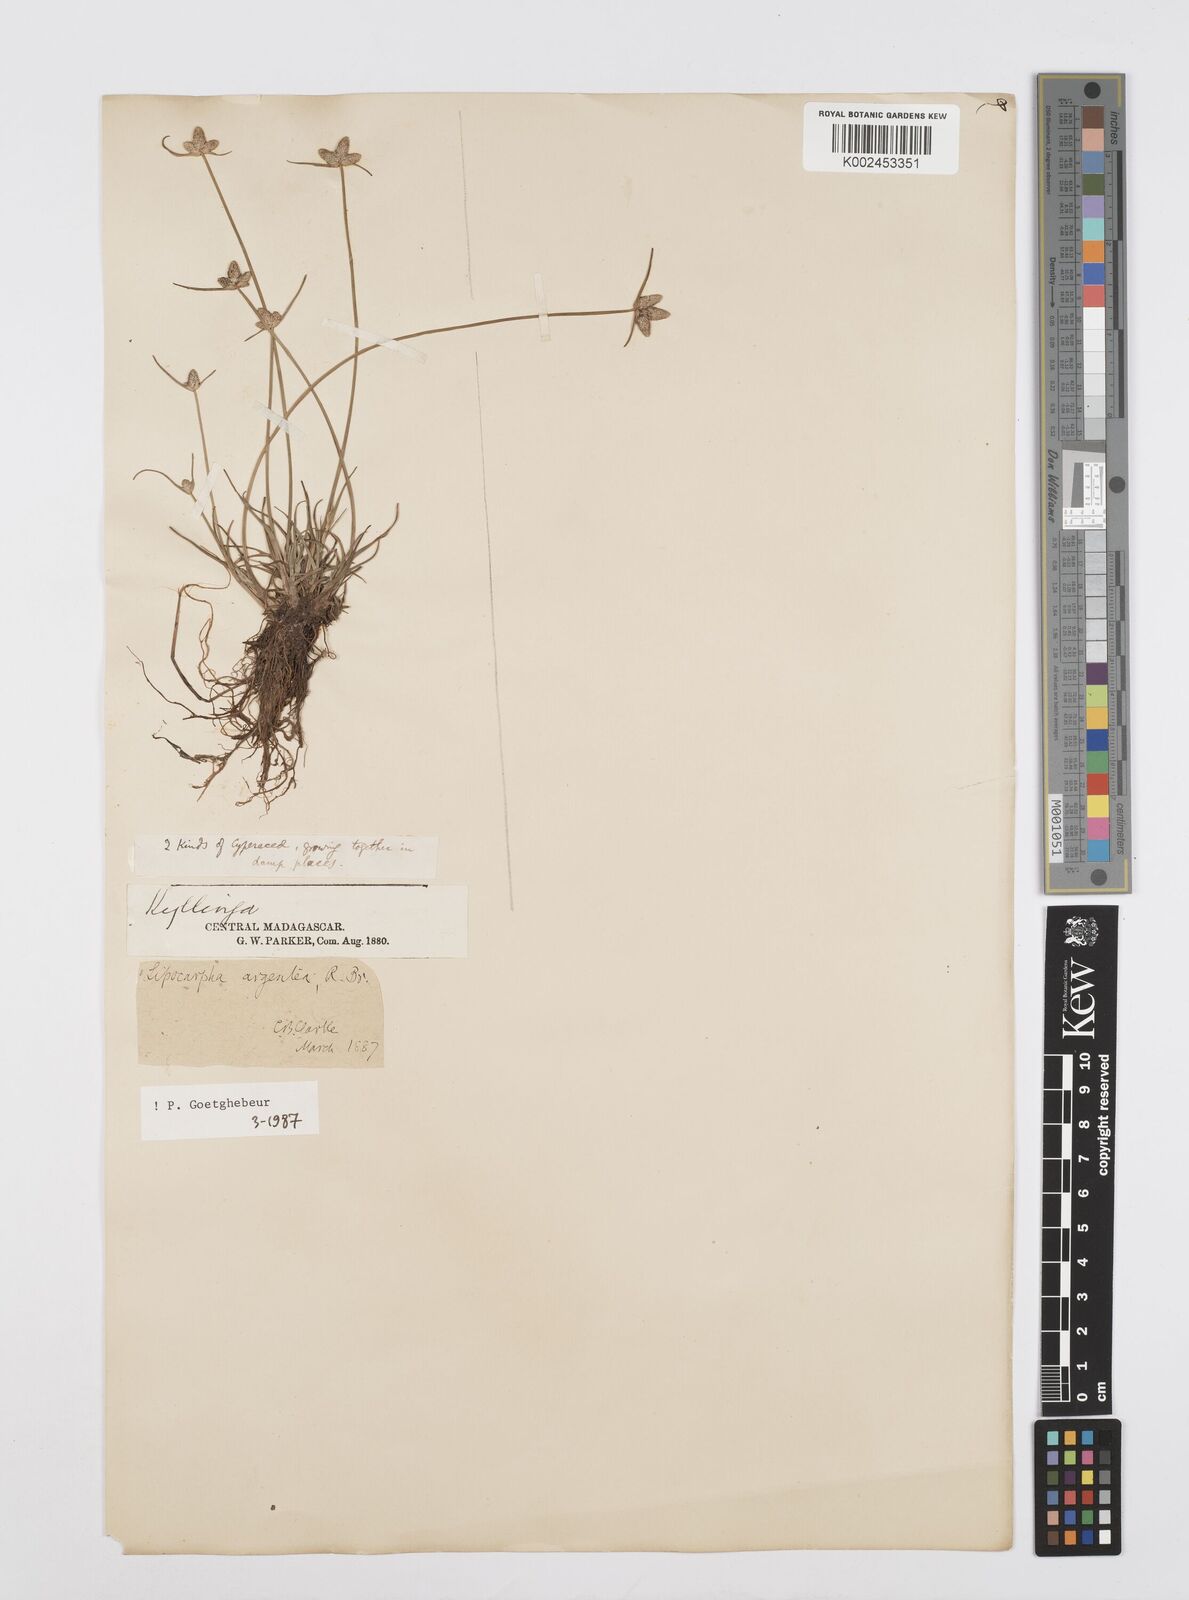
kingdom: Plantae
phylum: Tracheophyta
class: Liliopsida
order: Poales
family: Cyperaceae
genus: Cyperus
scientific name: Cyperus
